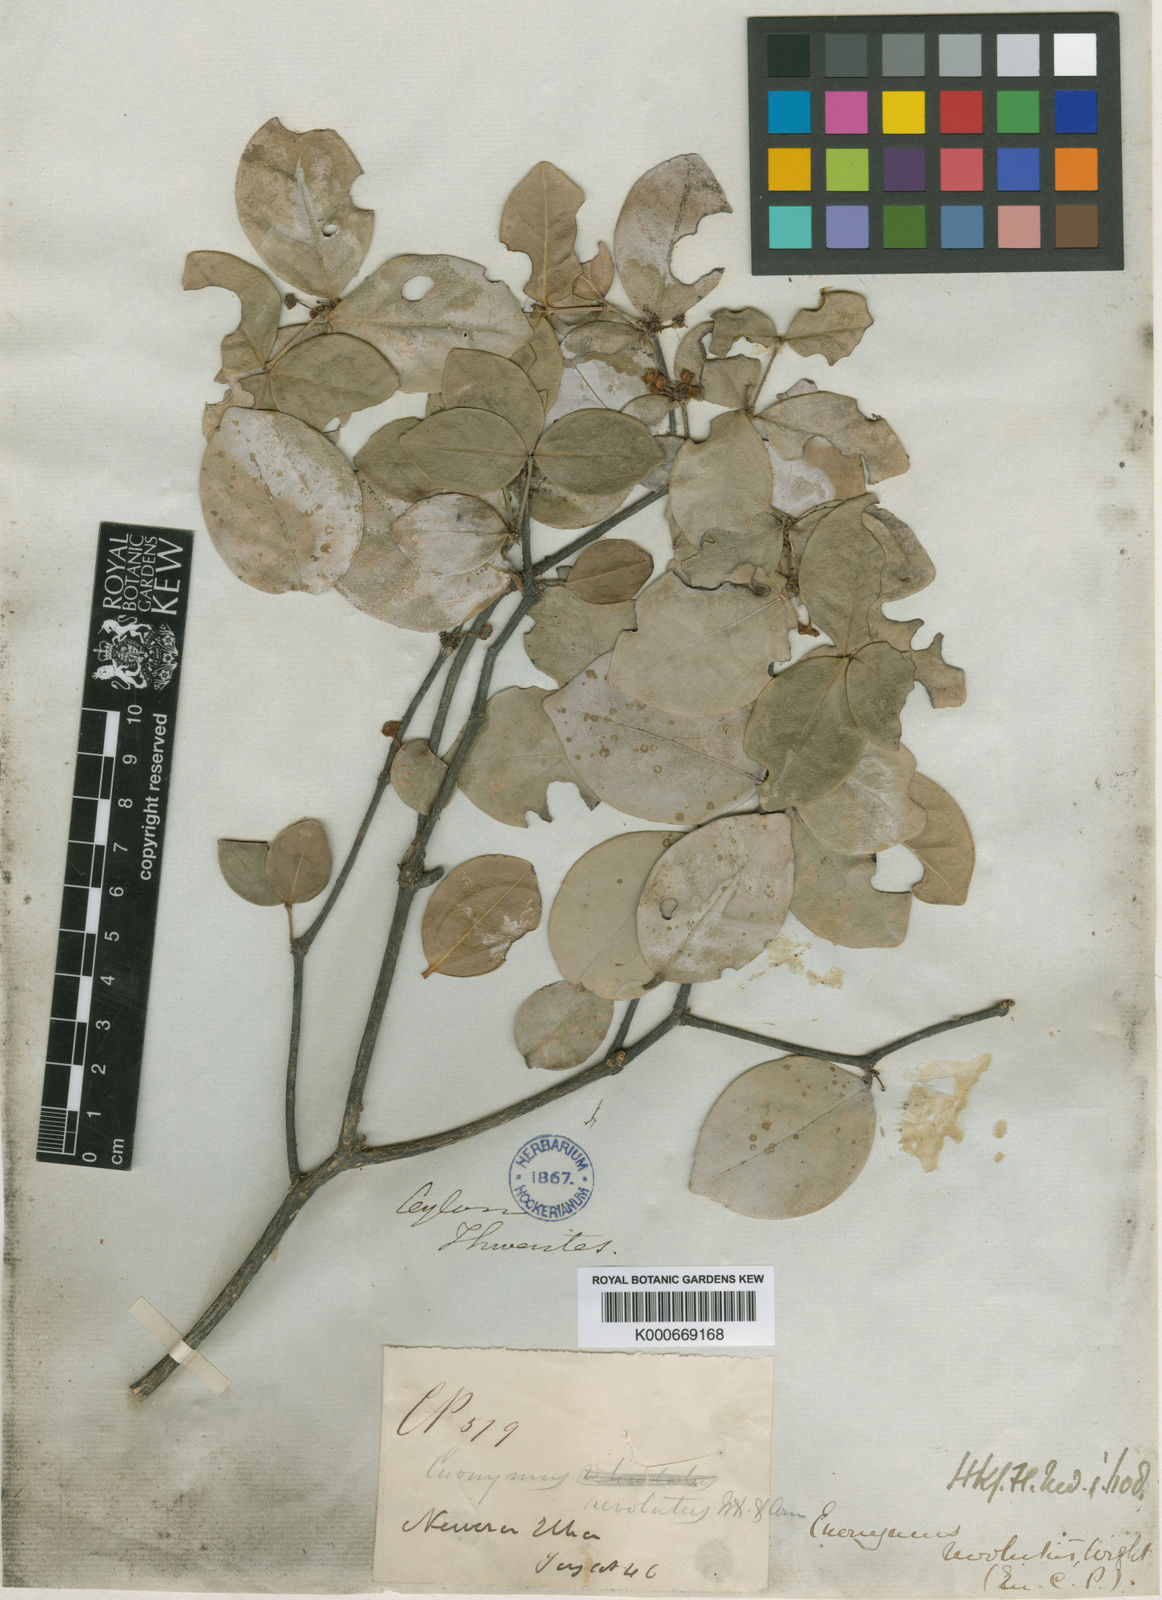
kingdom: Plantae
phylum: Tracheophyta
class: Magnoliopsida
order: Celastrales
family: Celastraceae
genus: Euonymus
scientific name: Euonymus revolutus
